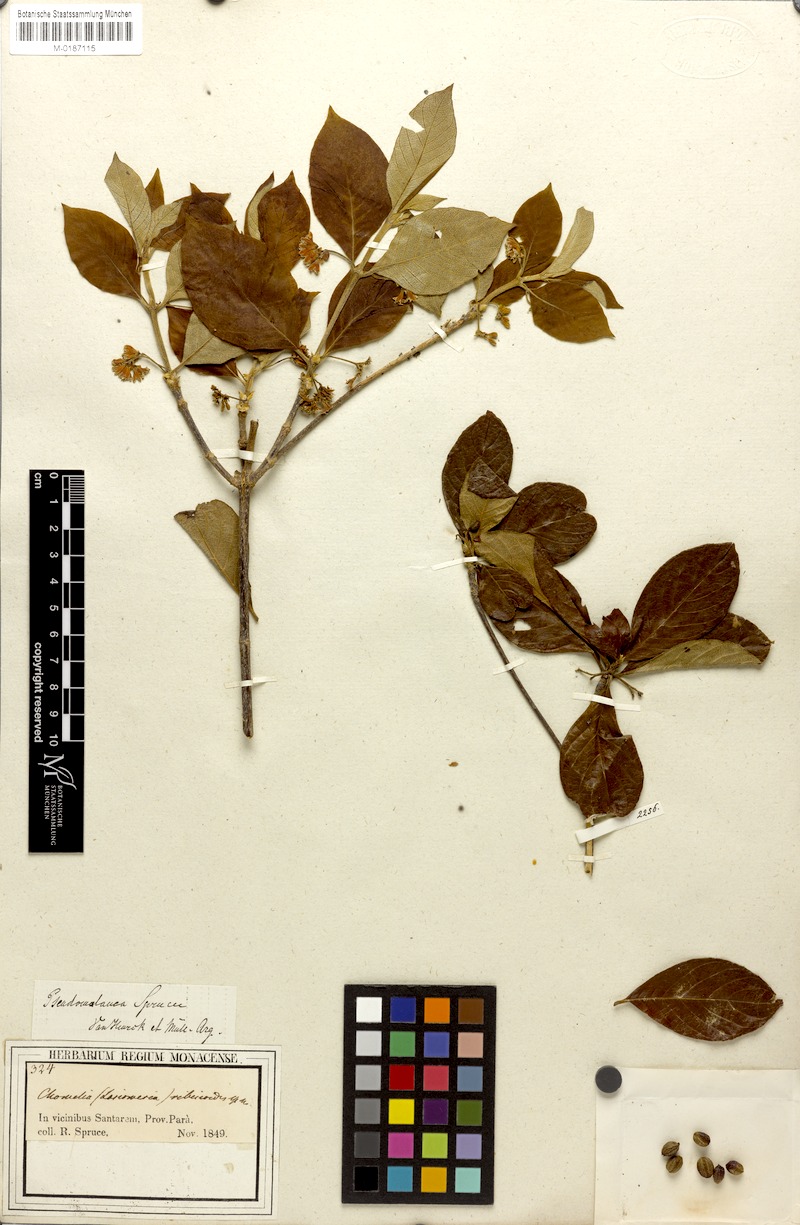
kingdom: Plantae
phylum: Tracheophyta
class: Magnoliopsida
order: Gentianales
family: Rubiaceae
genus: Chomelia
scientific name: Chomelia ribesioides
